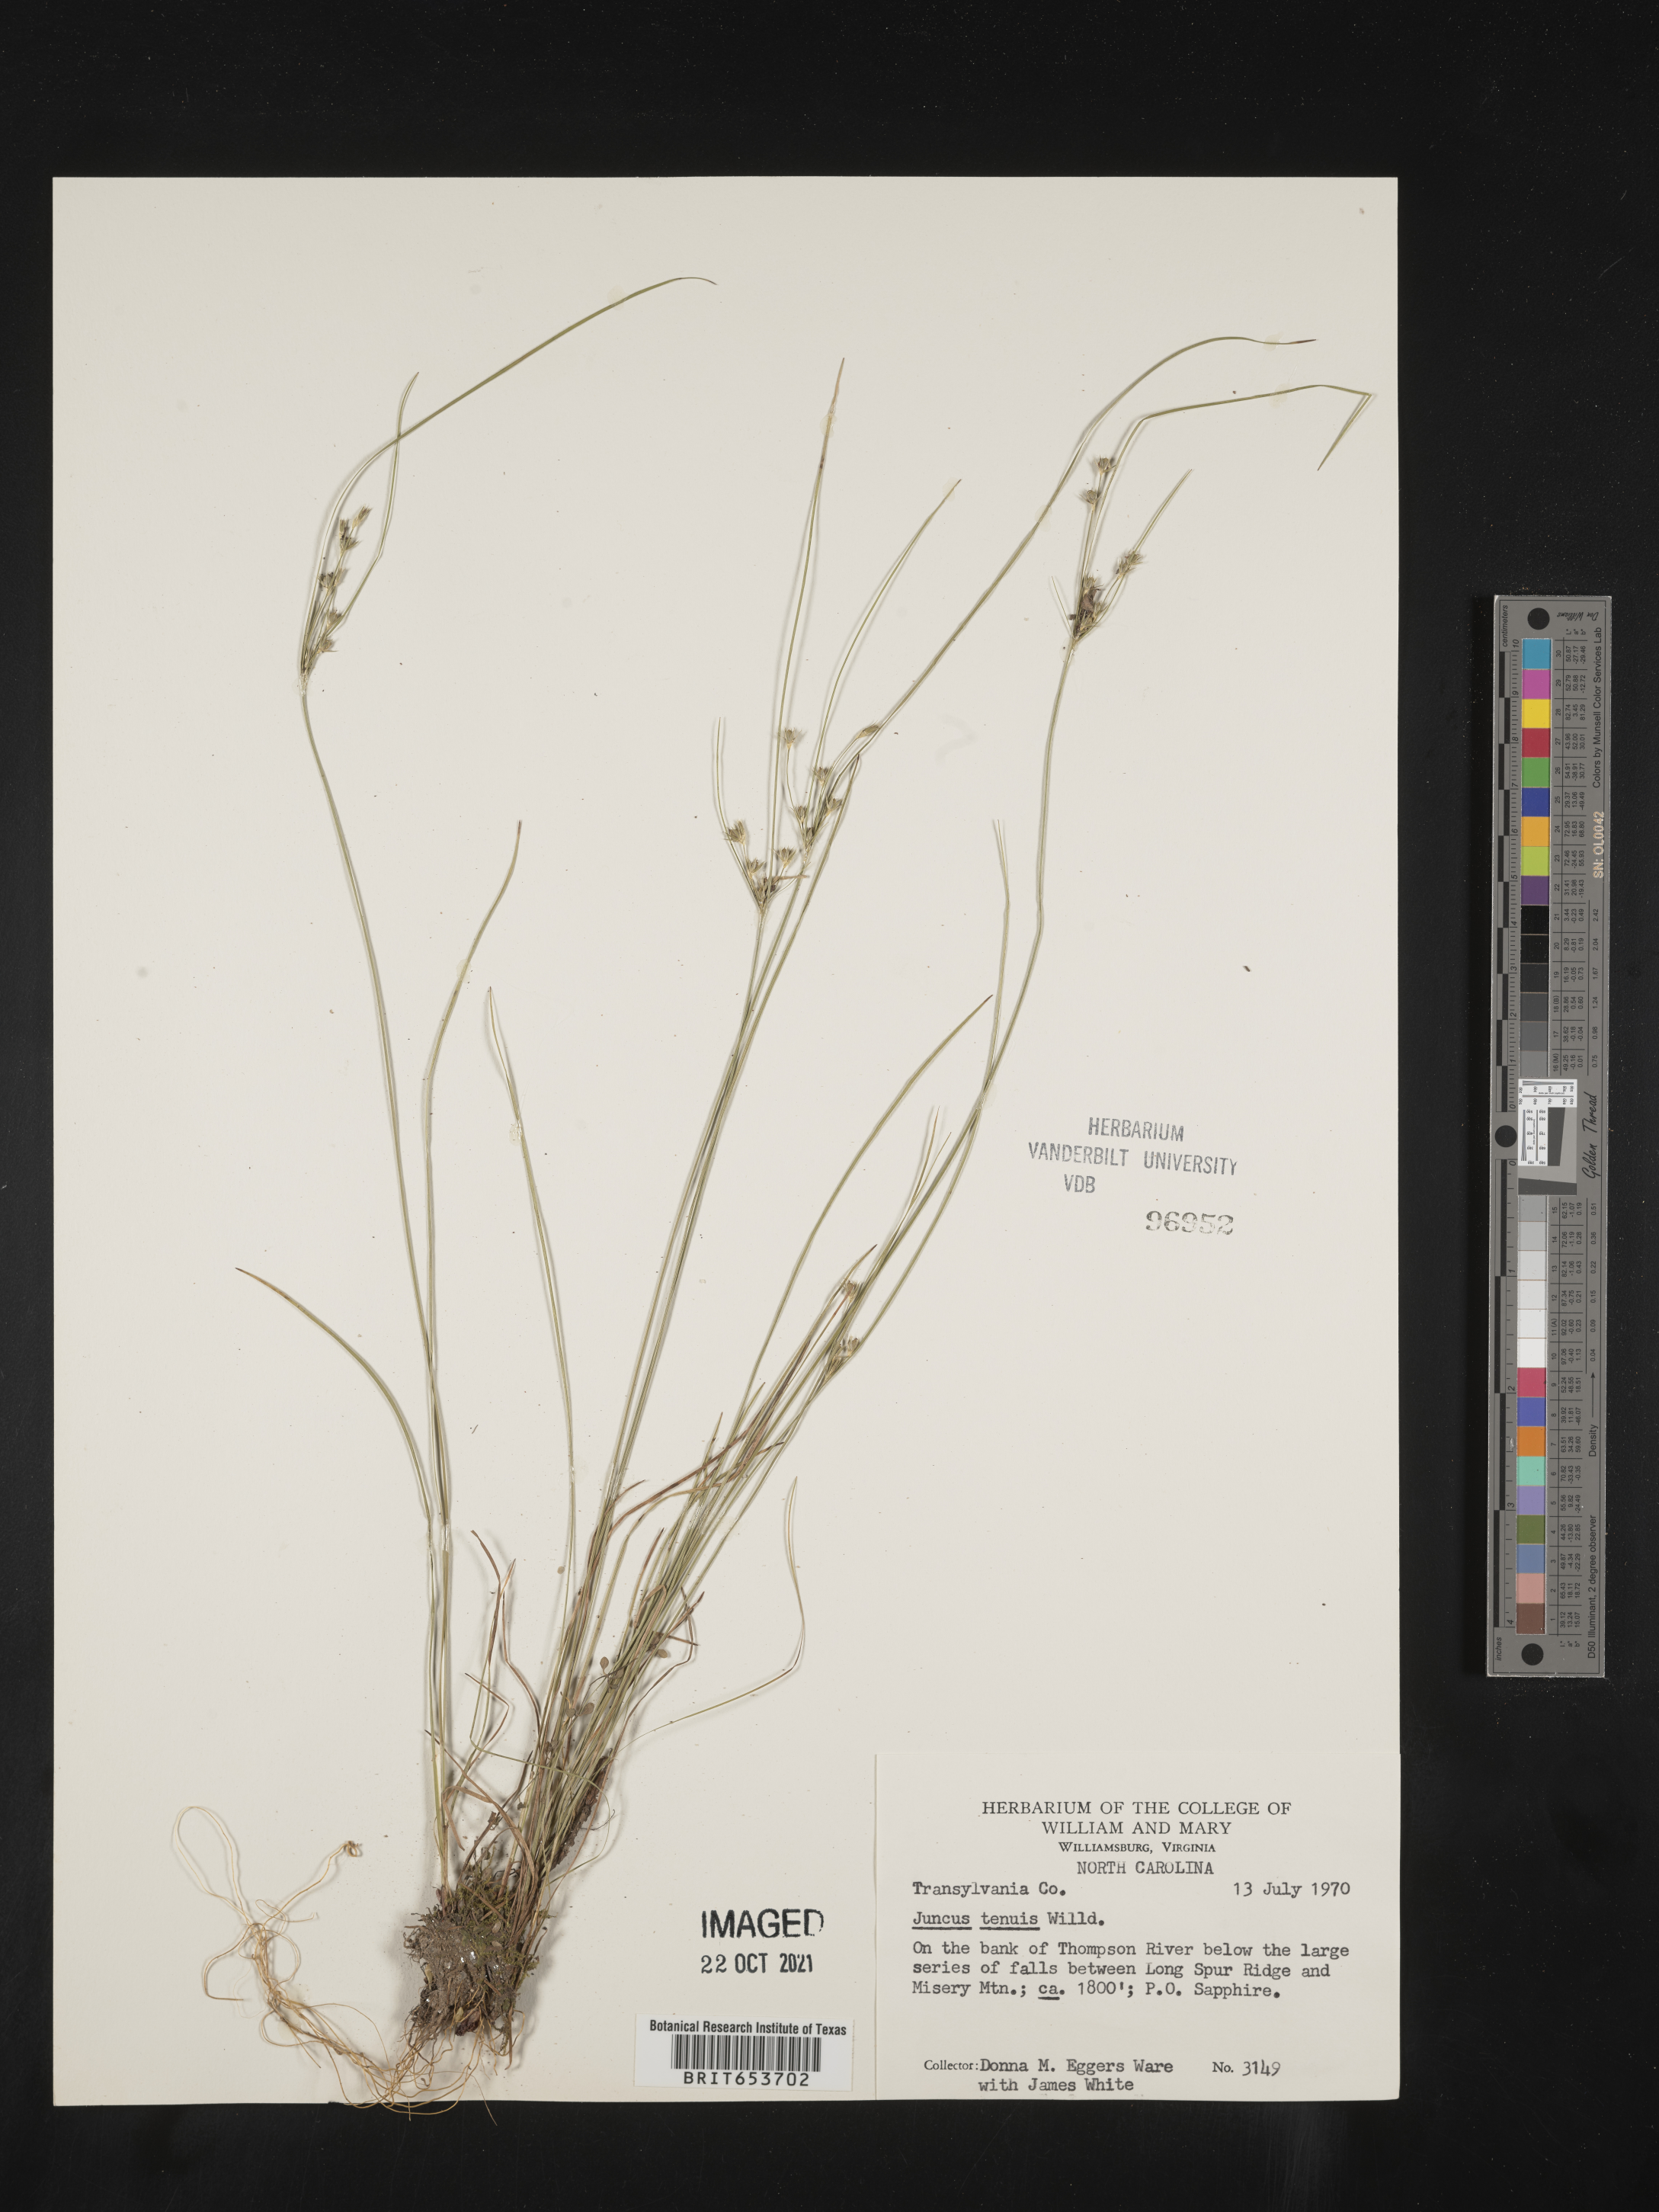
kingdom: Plantae
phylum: Tracheophyta
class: Liliopsida
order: Poales
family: Juncaceae
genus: Juncus
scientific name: Juncus tenuis
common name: Slender rush
